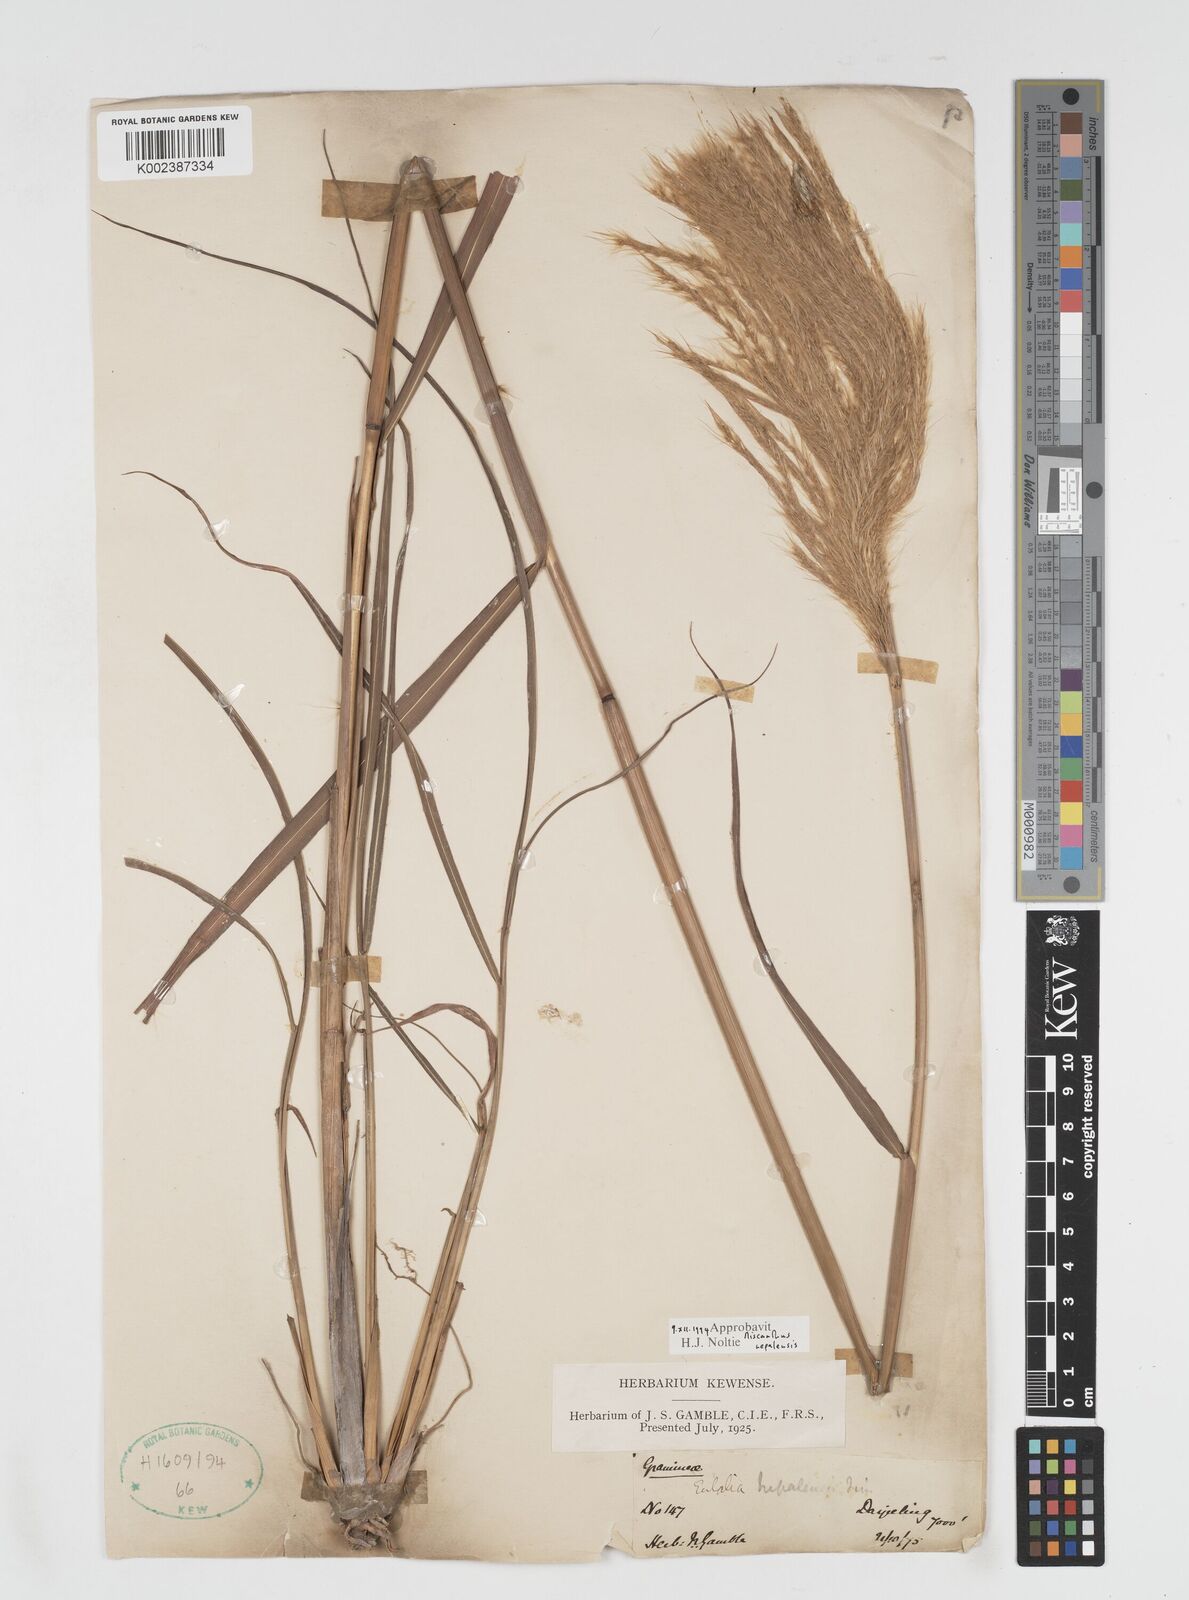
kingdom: Plantae
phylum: Tracheophyta
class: Liliopsida
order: Poales
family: Poaceae
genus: Miscanthus
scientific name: Miscanthus nepalensis
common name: Nepal silver grass
